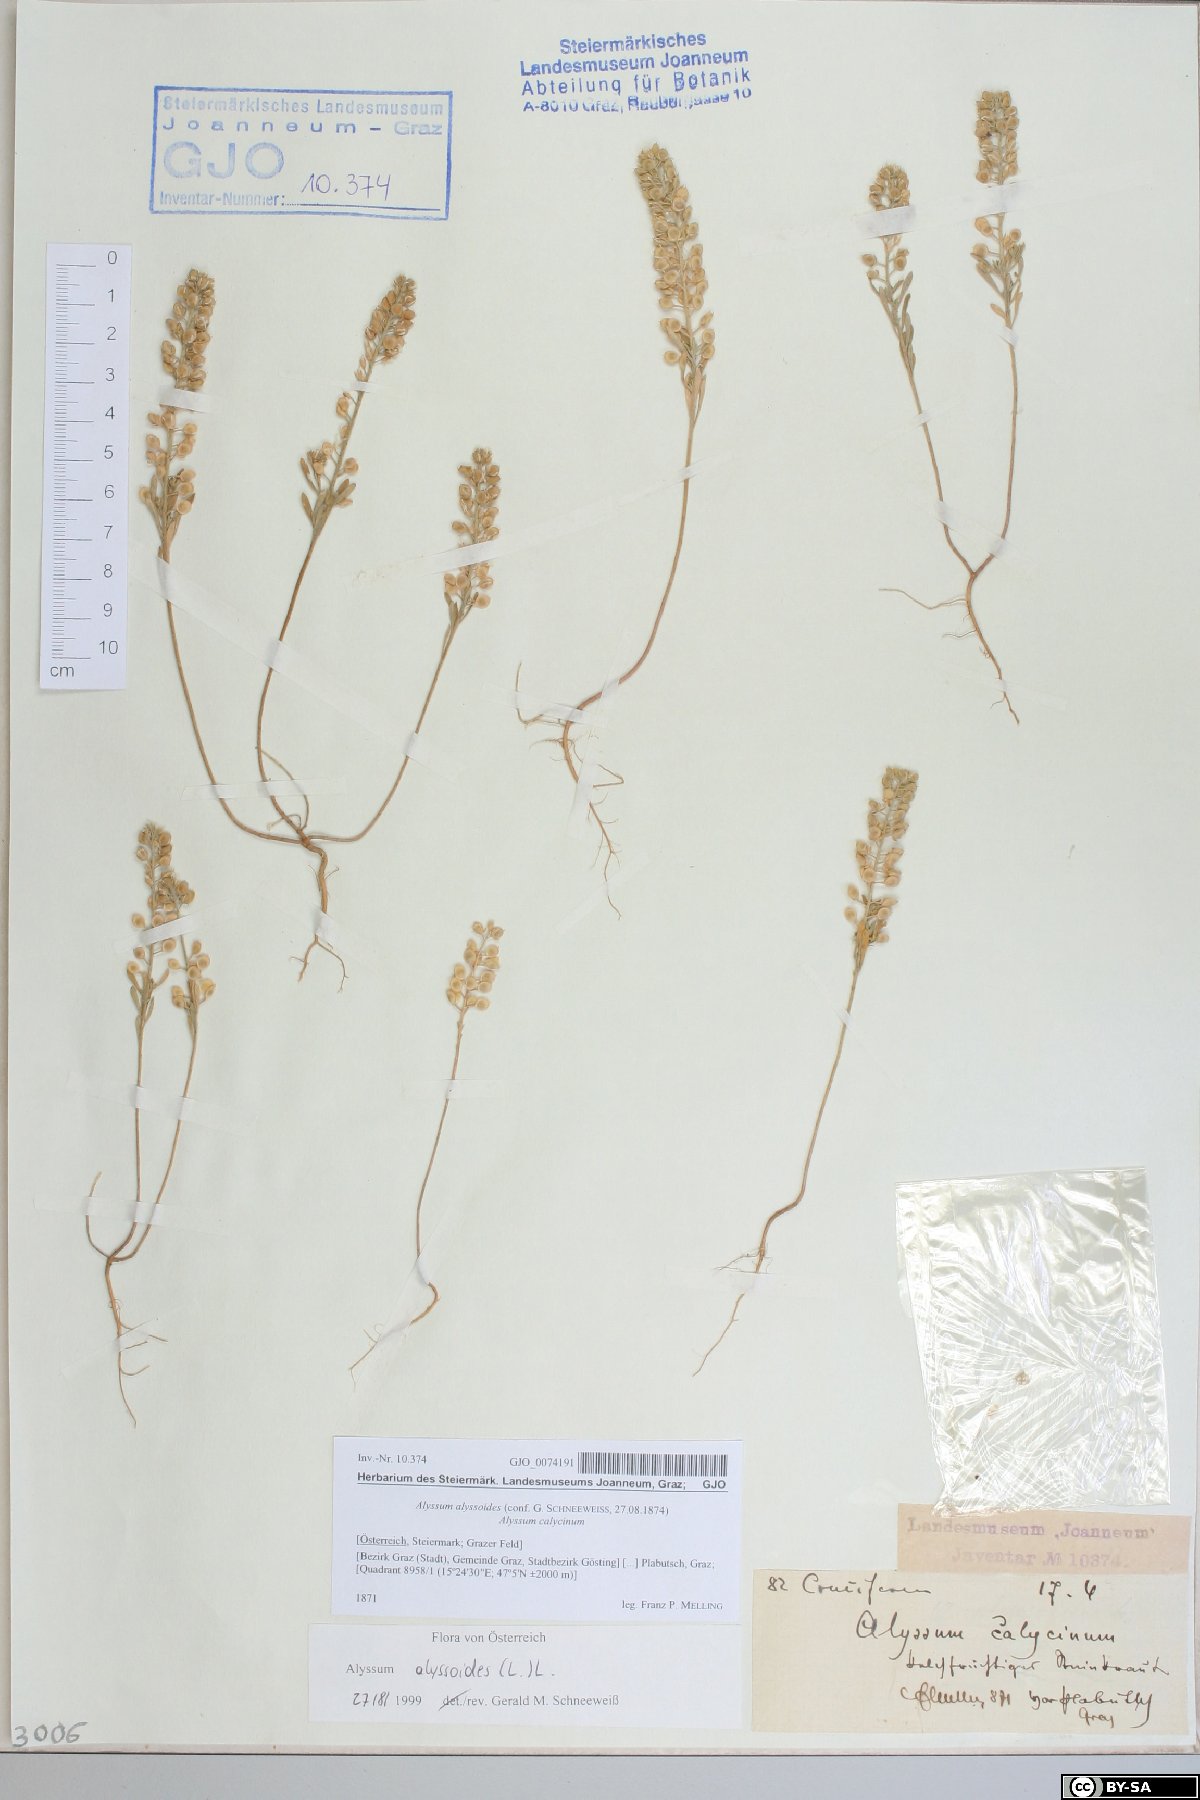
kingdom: Plantae
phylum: Tracheophyta
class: Magnoliopsida
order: Brassicales
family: Brassicaceae
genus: Alyssum
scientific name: Alyssum alyssoides
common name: Small alison
